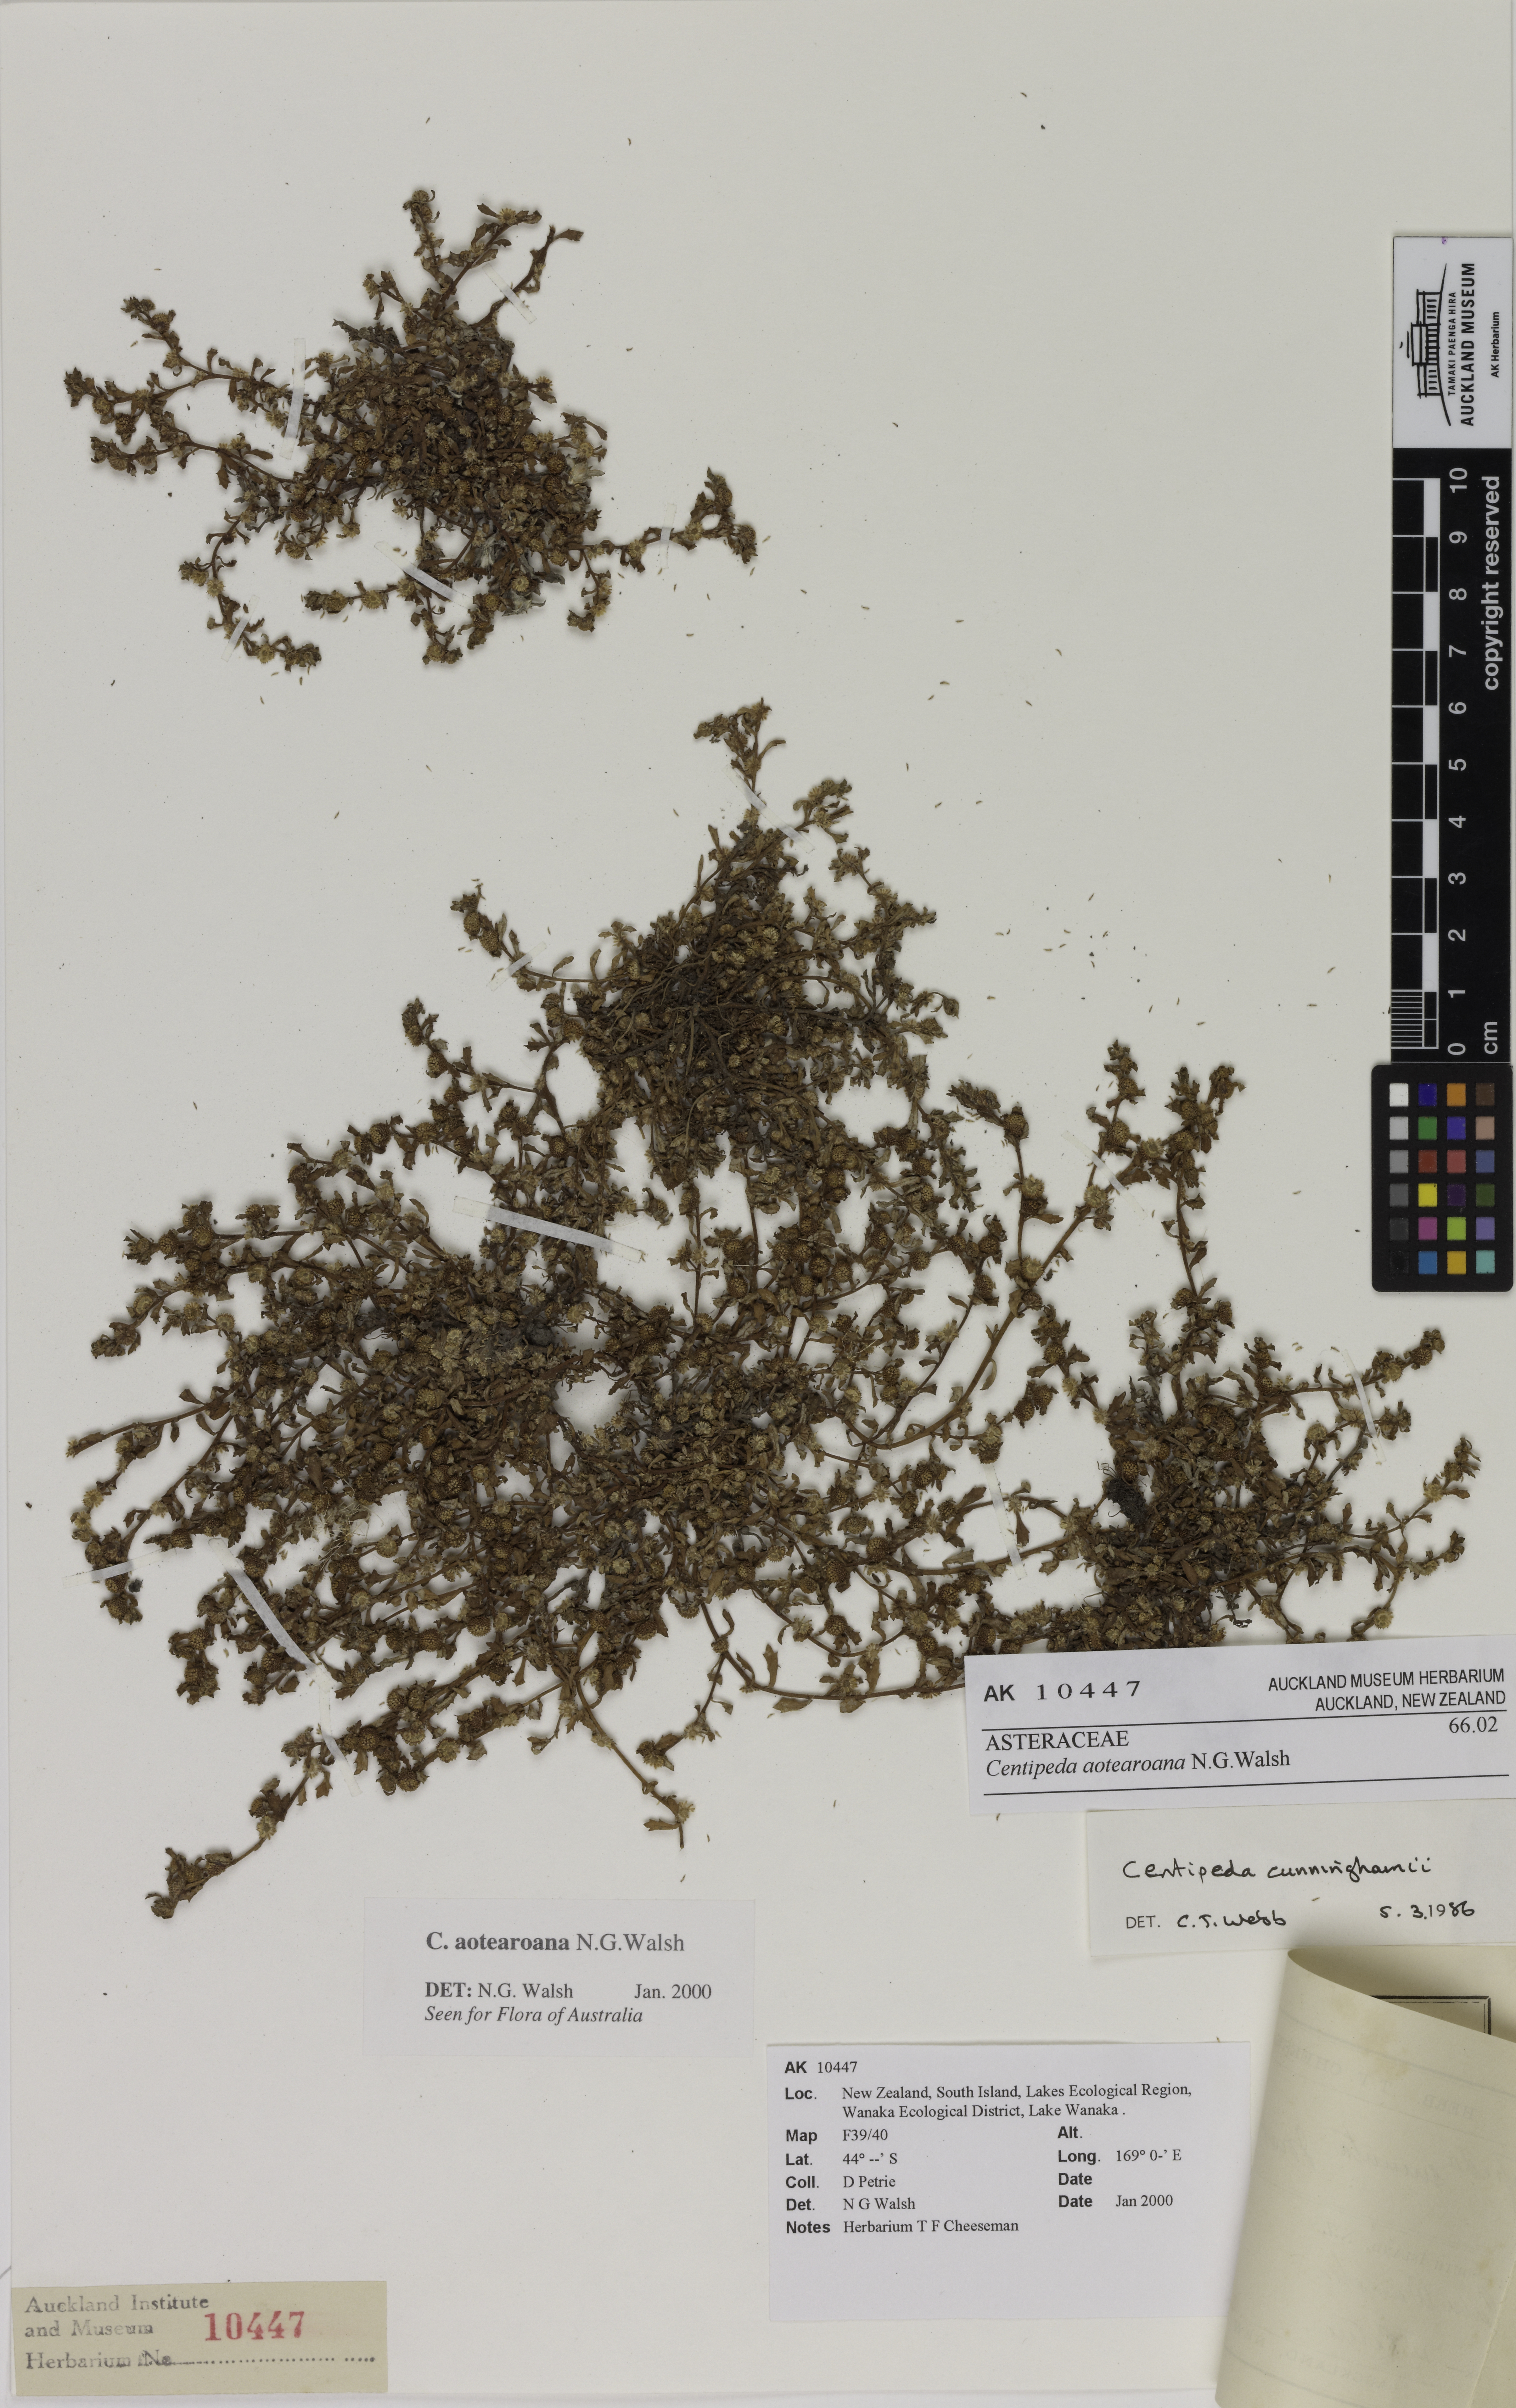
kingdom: Plantae
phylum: Tracheophyta
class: Magnoliopsida
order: Asterales
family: Asteraceae
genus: Centipeda
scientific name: Centipeda aotearoana
